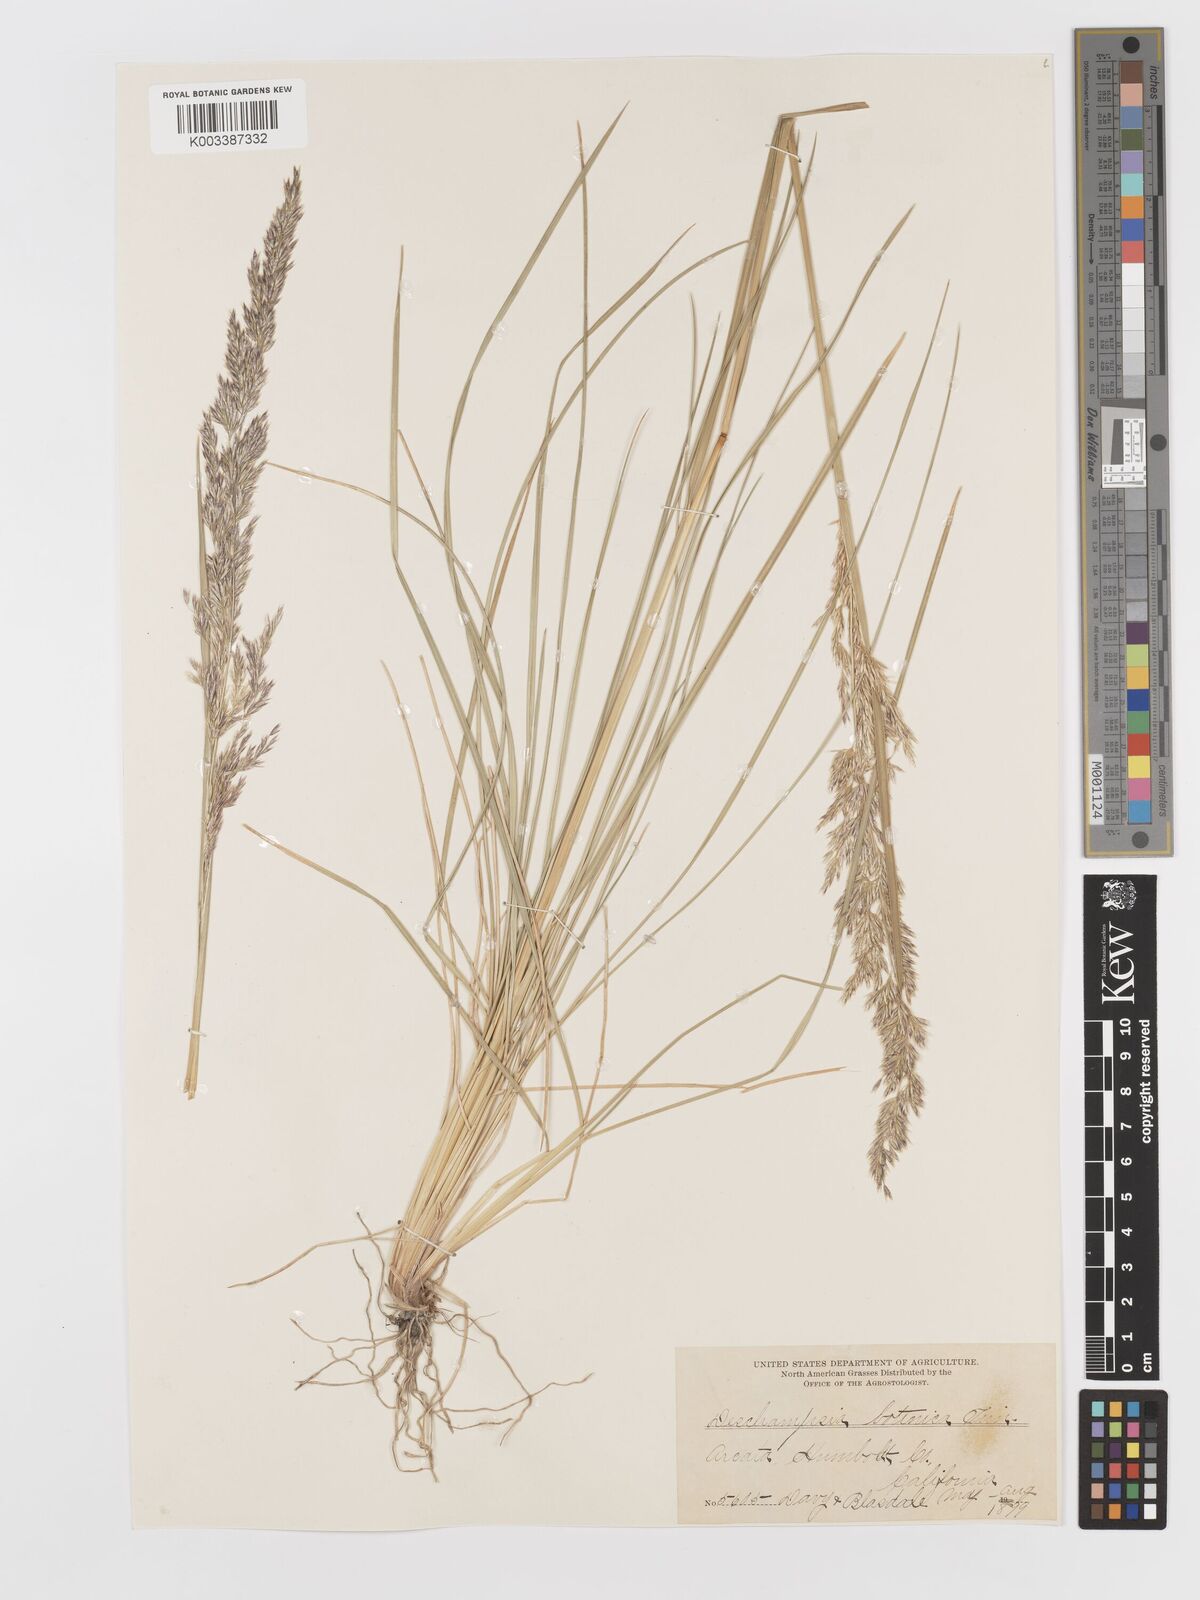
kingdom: Plantae
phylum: Tracheophyta
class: Liliopsida
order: Poales
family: Poaceae
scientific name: Poaceae
